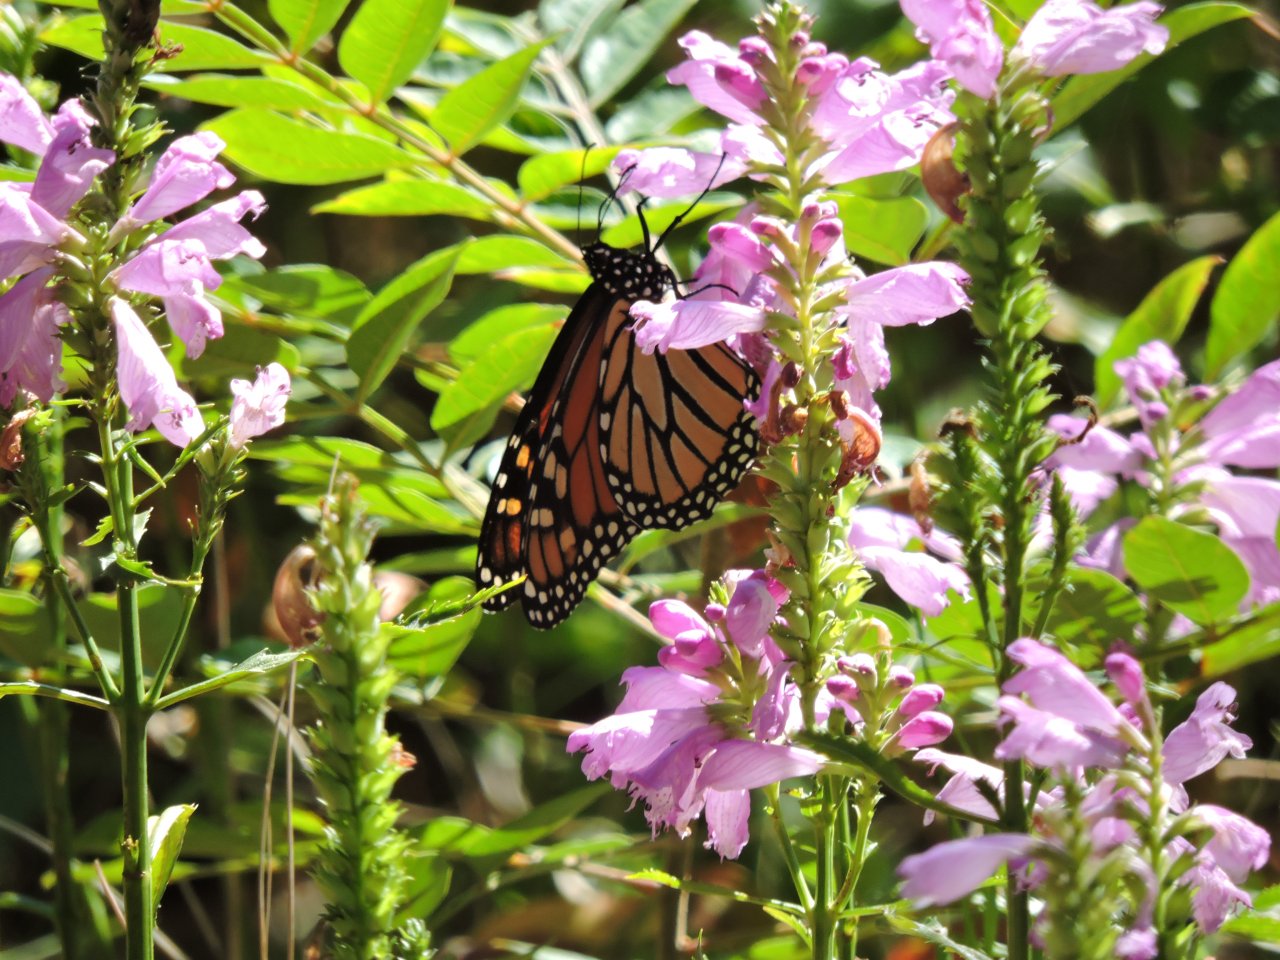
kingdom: Animalia
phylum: Arthropoda
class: Insecta
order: Lepidoptera
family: Nymphalidae
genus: Danaus
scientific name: Danaus plexippus
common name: Monarch
